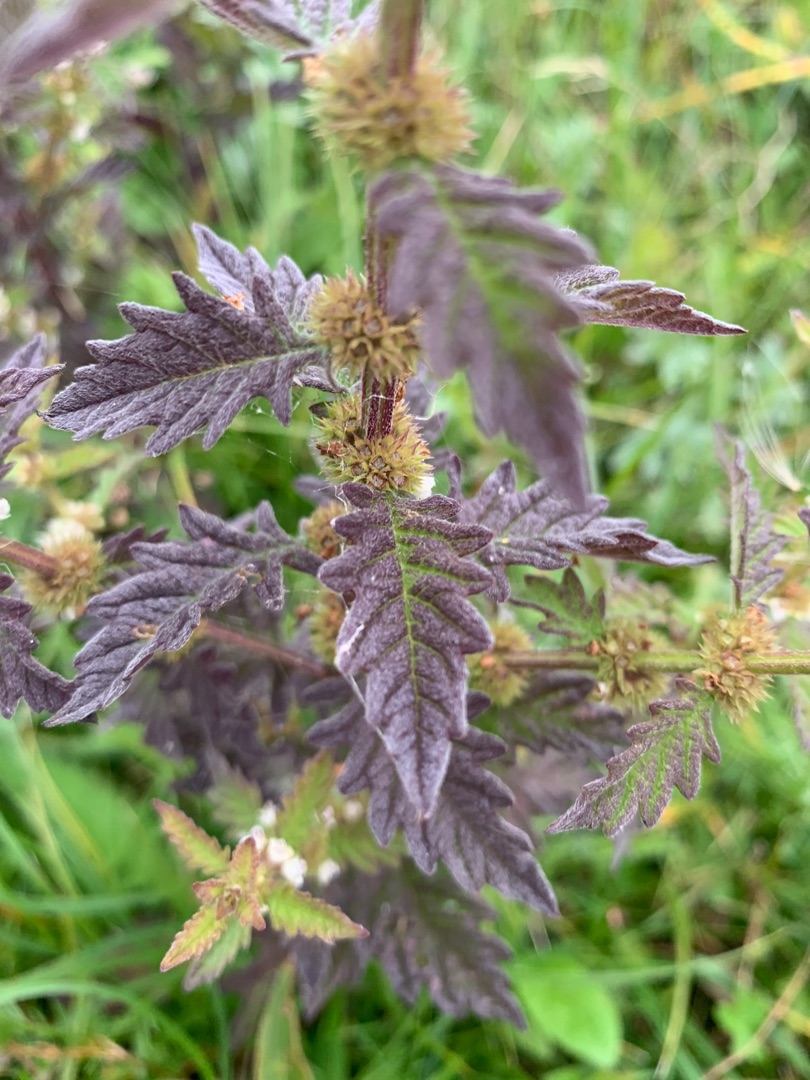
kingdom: Plantae
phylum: Tracheophyta
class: Magnoliopsida
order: Lamiales
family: Lamiaceae
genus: Lycopus
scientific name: Lycopus europaeus
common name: Sværtevæld
